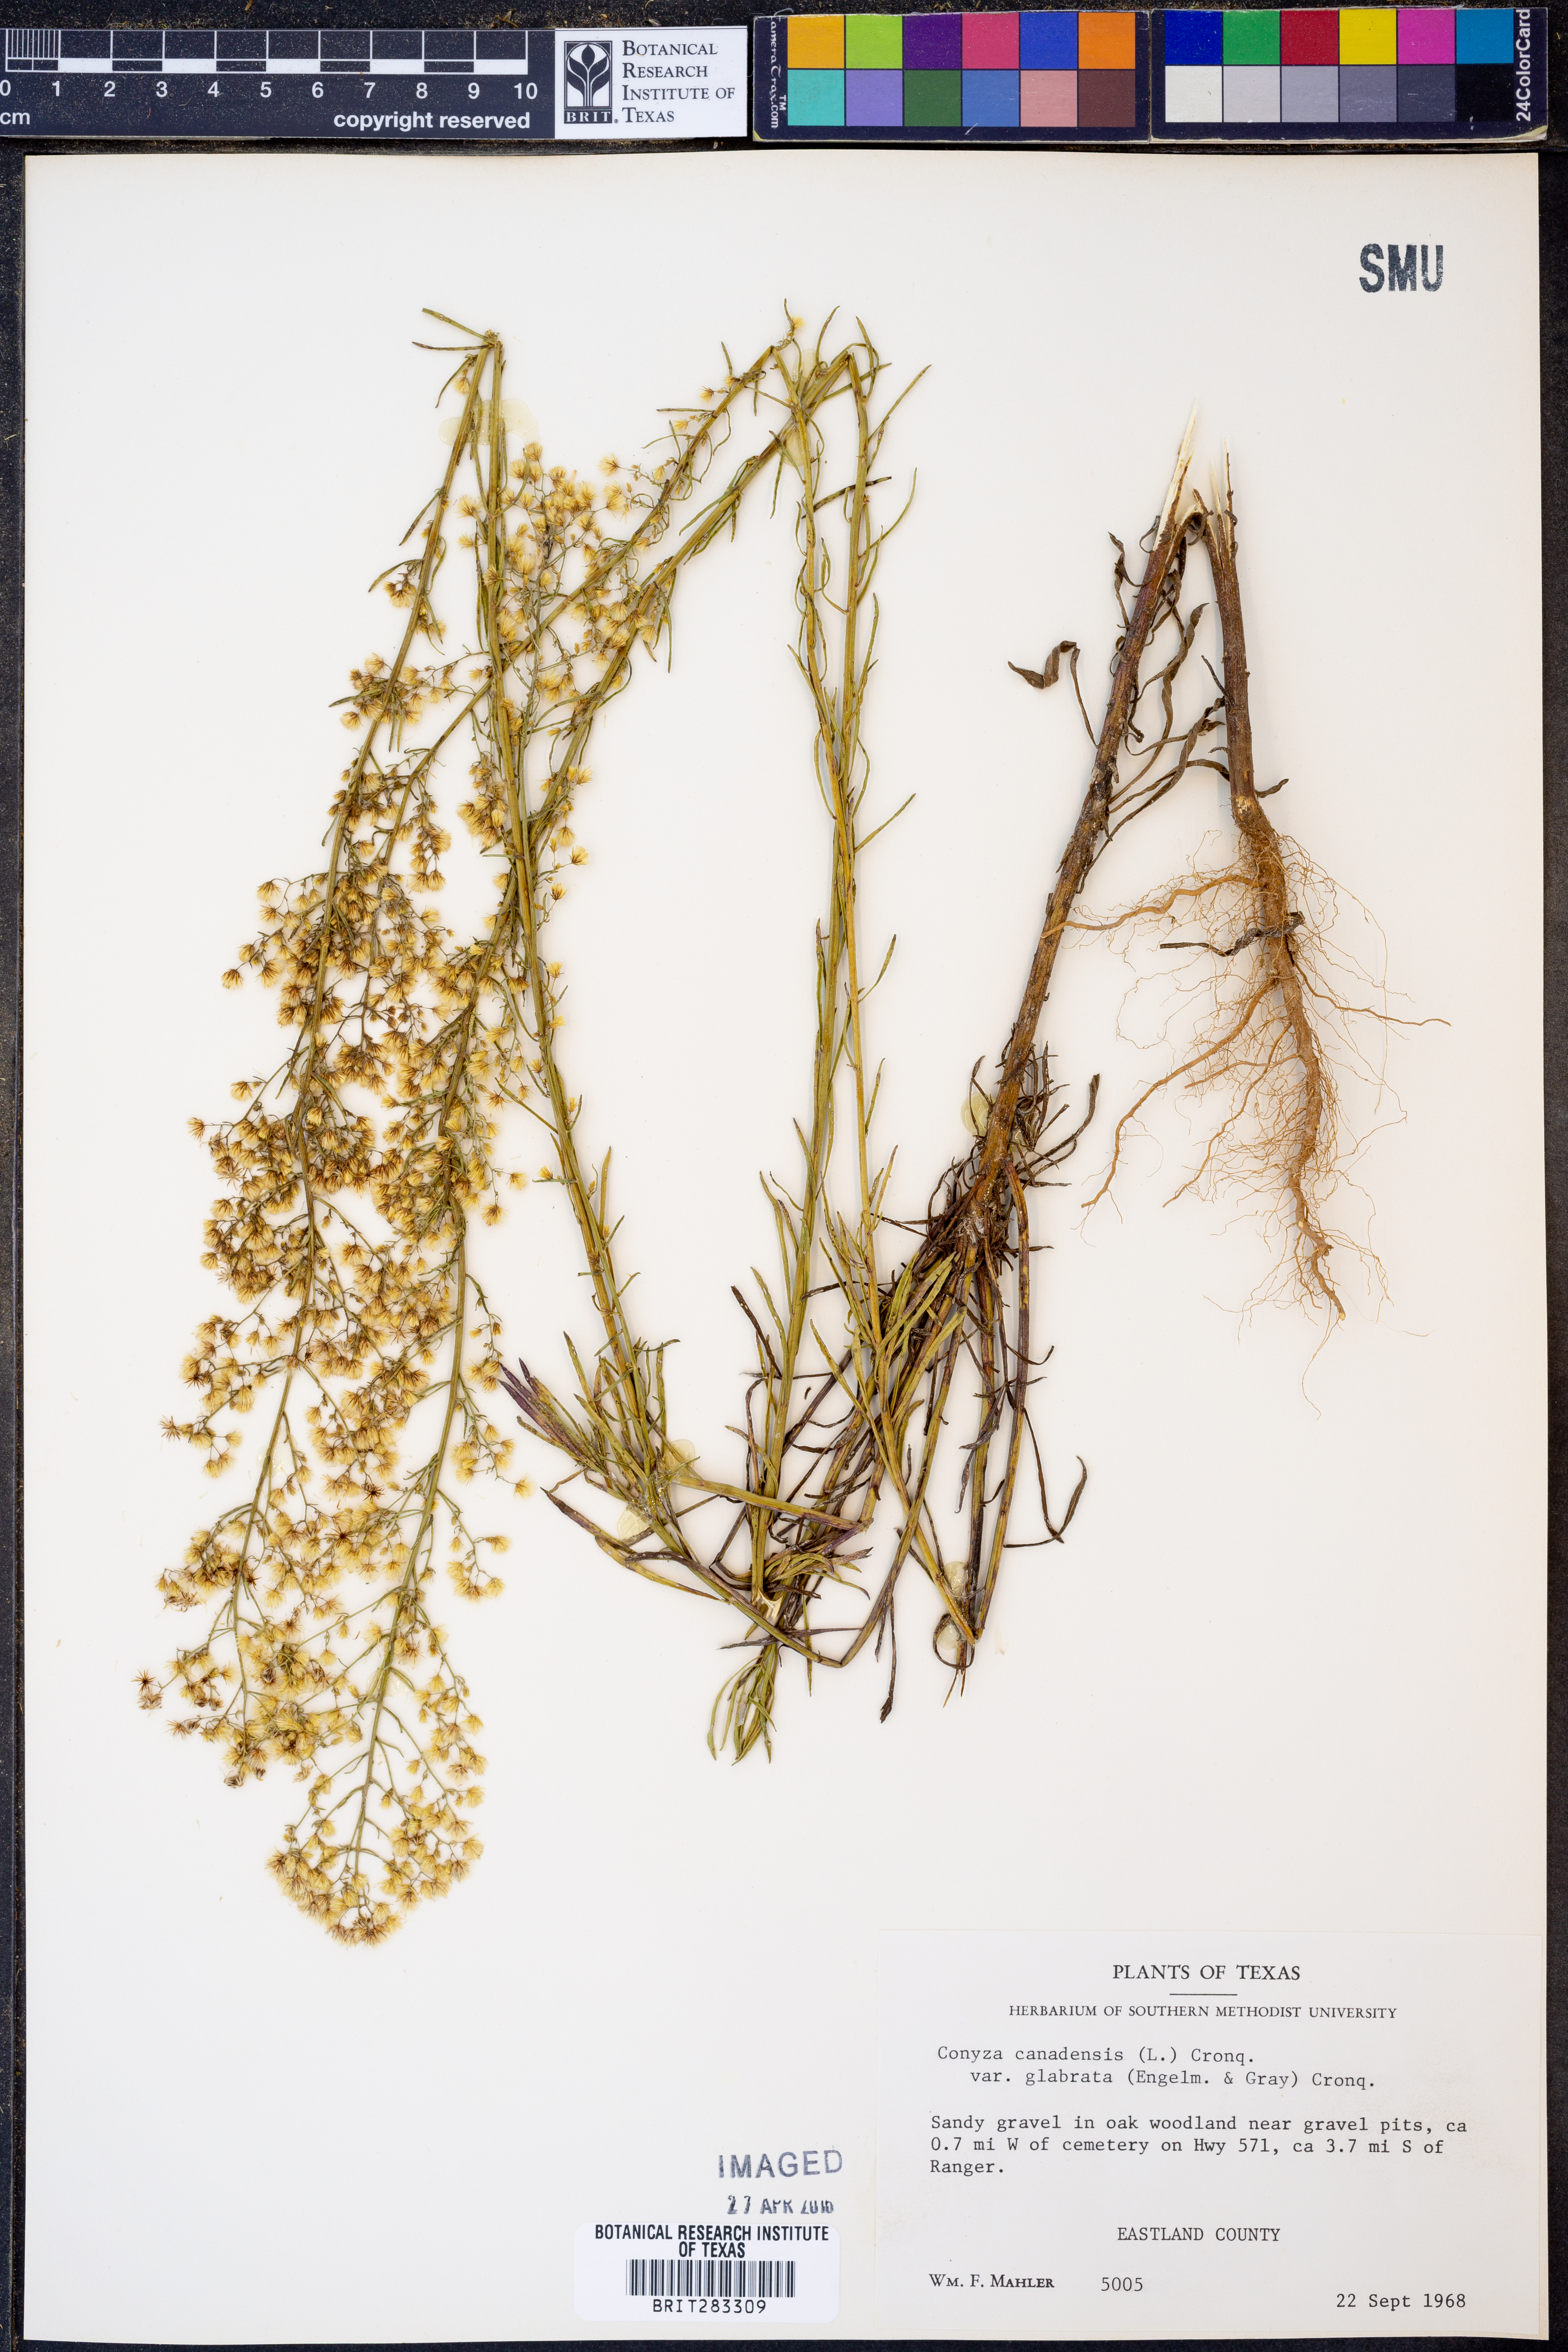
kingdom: Plantae
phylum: Tracheophyta
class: Magnoliopsida
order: Asterales
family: Asteraceae
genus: Erigeron
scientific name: Erigeron canadensis
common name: Canadian fleabane
